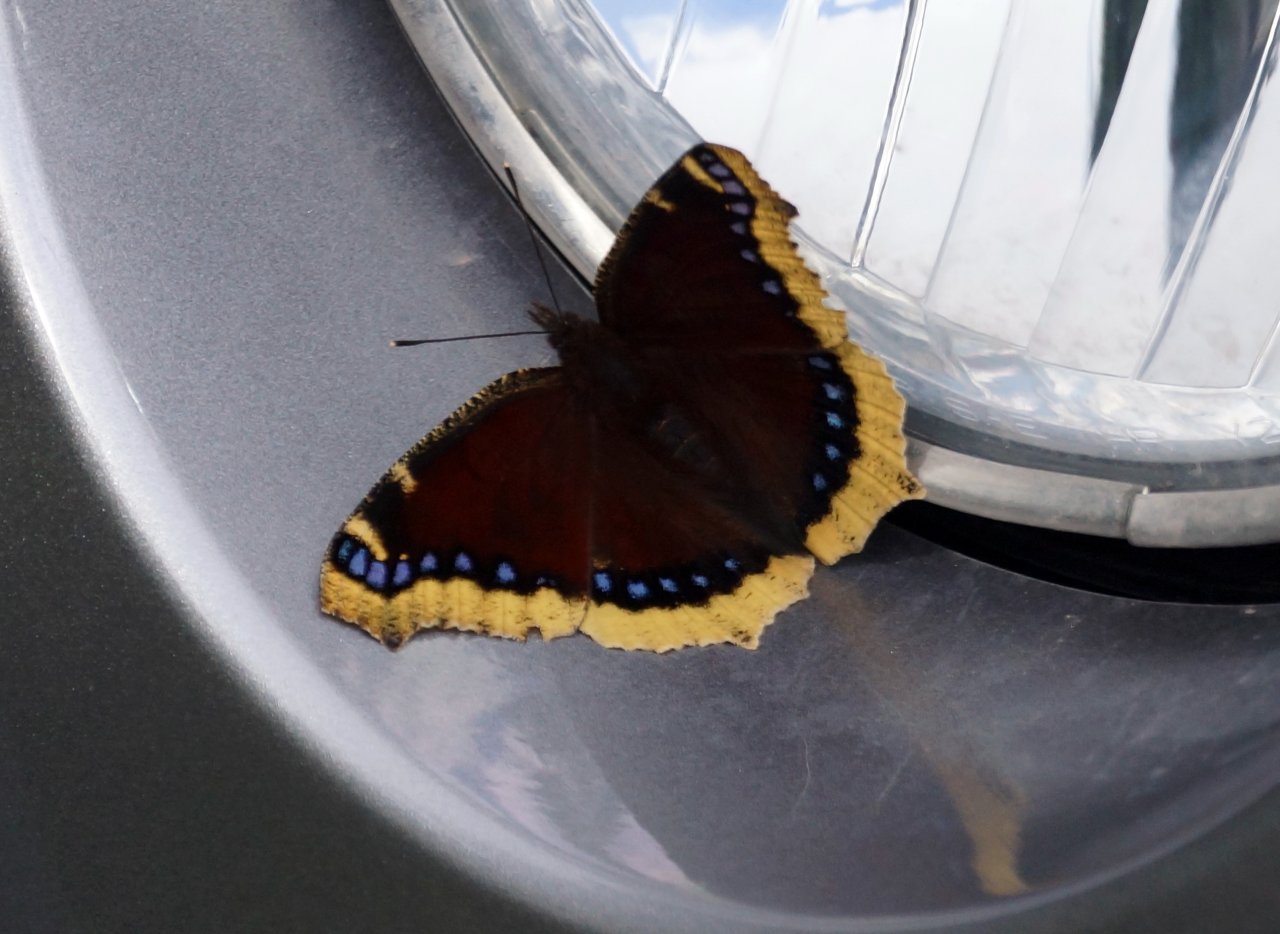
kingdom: Animalia
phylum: Arthropoda
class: Insecta
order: Lepidoptera
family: Nymphalidae
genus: Nymphalis
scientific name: Nymphalis antiopa
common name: Mourning Cloak
